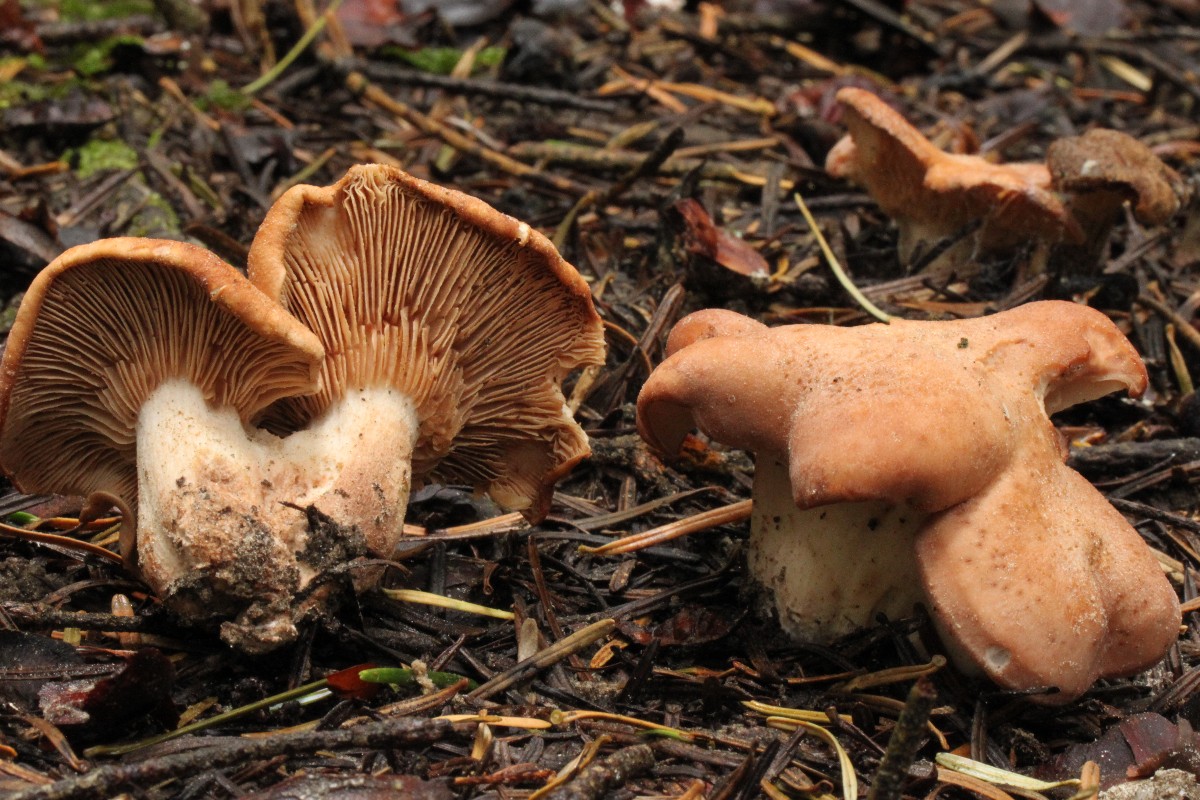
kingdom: Fungi
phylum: Basidiomycota
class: Agaricomycetes
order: Agaricales
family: Entolomataceae
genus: Clitopilus
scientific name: Clitopilus geminus
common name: kødfarvet troldhat
